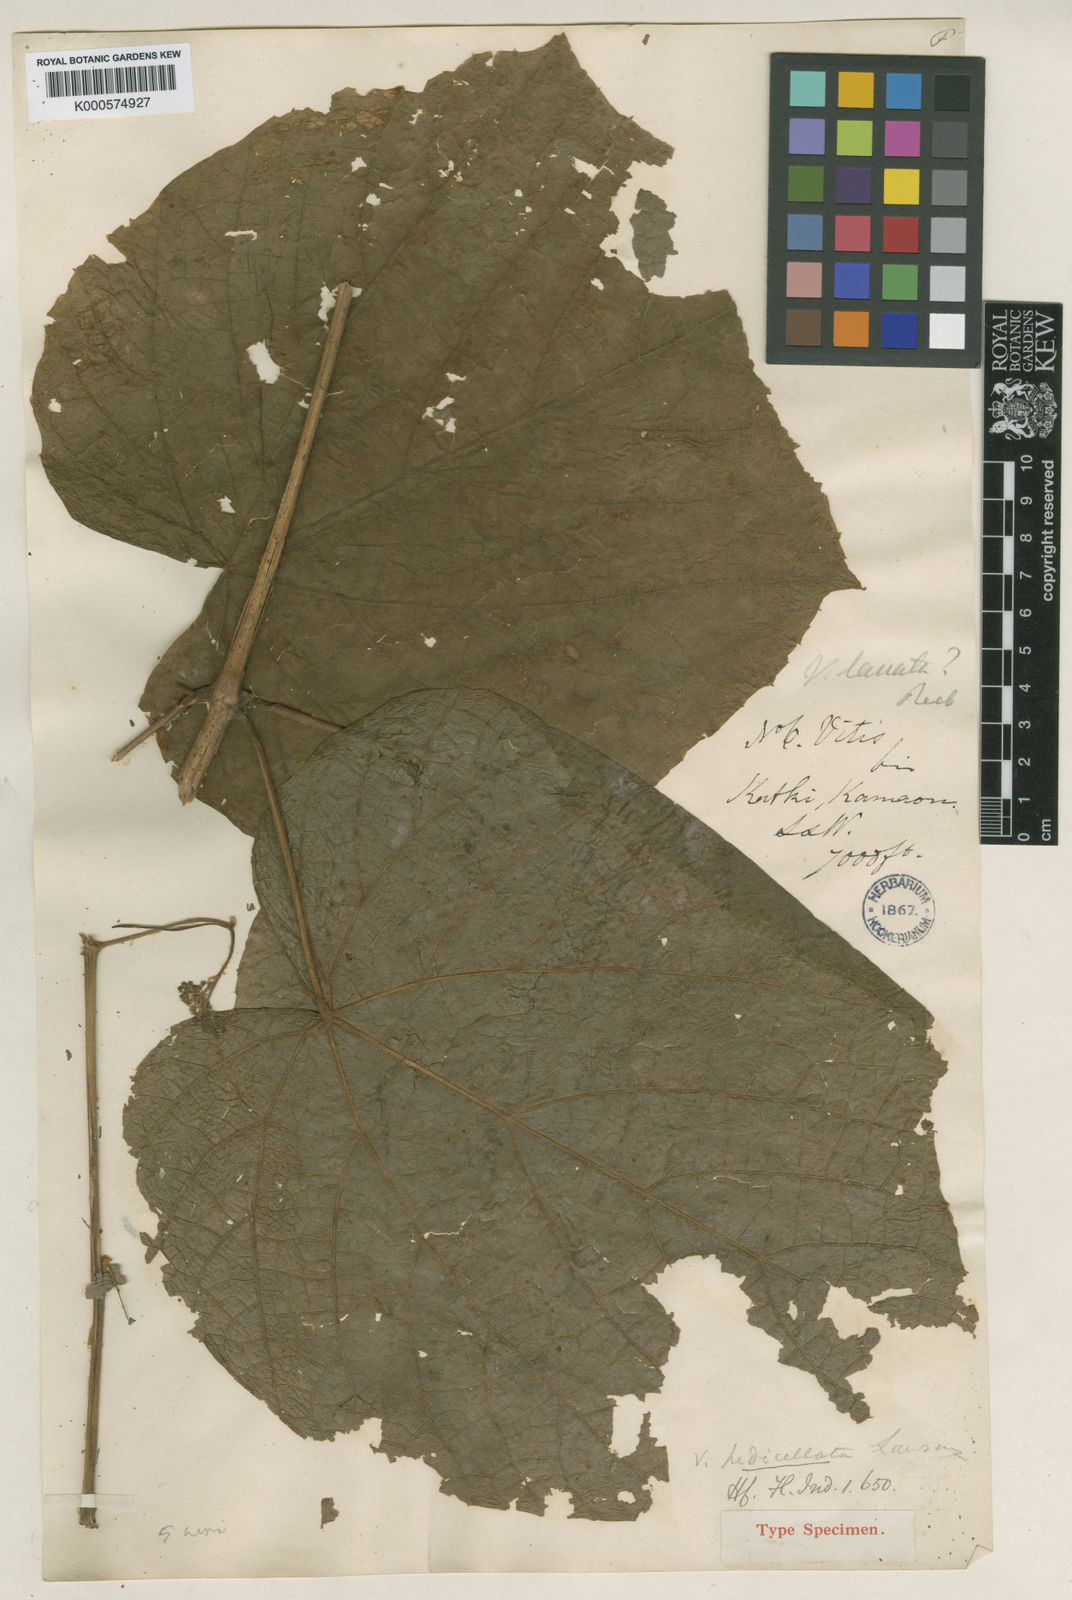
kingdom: Plantae
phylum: Tracheophyta
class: Magnoliopsida
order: Vitales
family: Vitaceae
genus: Vitis
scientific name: Vitis heyneana
